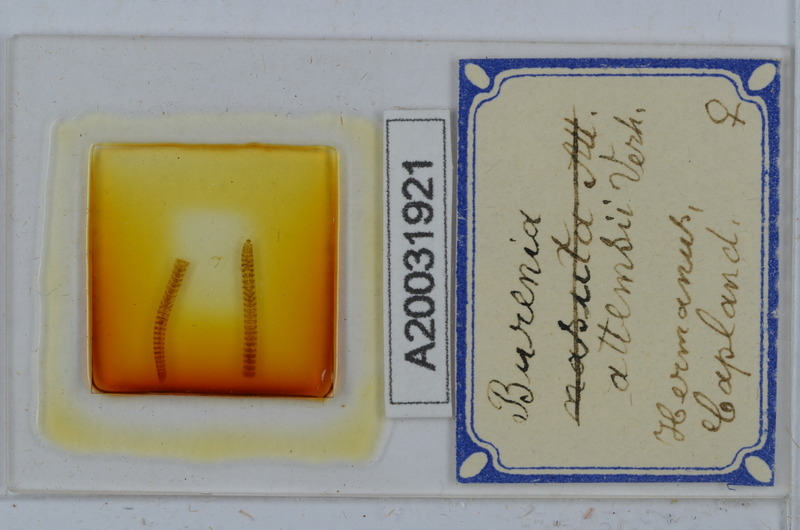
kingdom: Animalia
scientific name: Animalia
